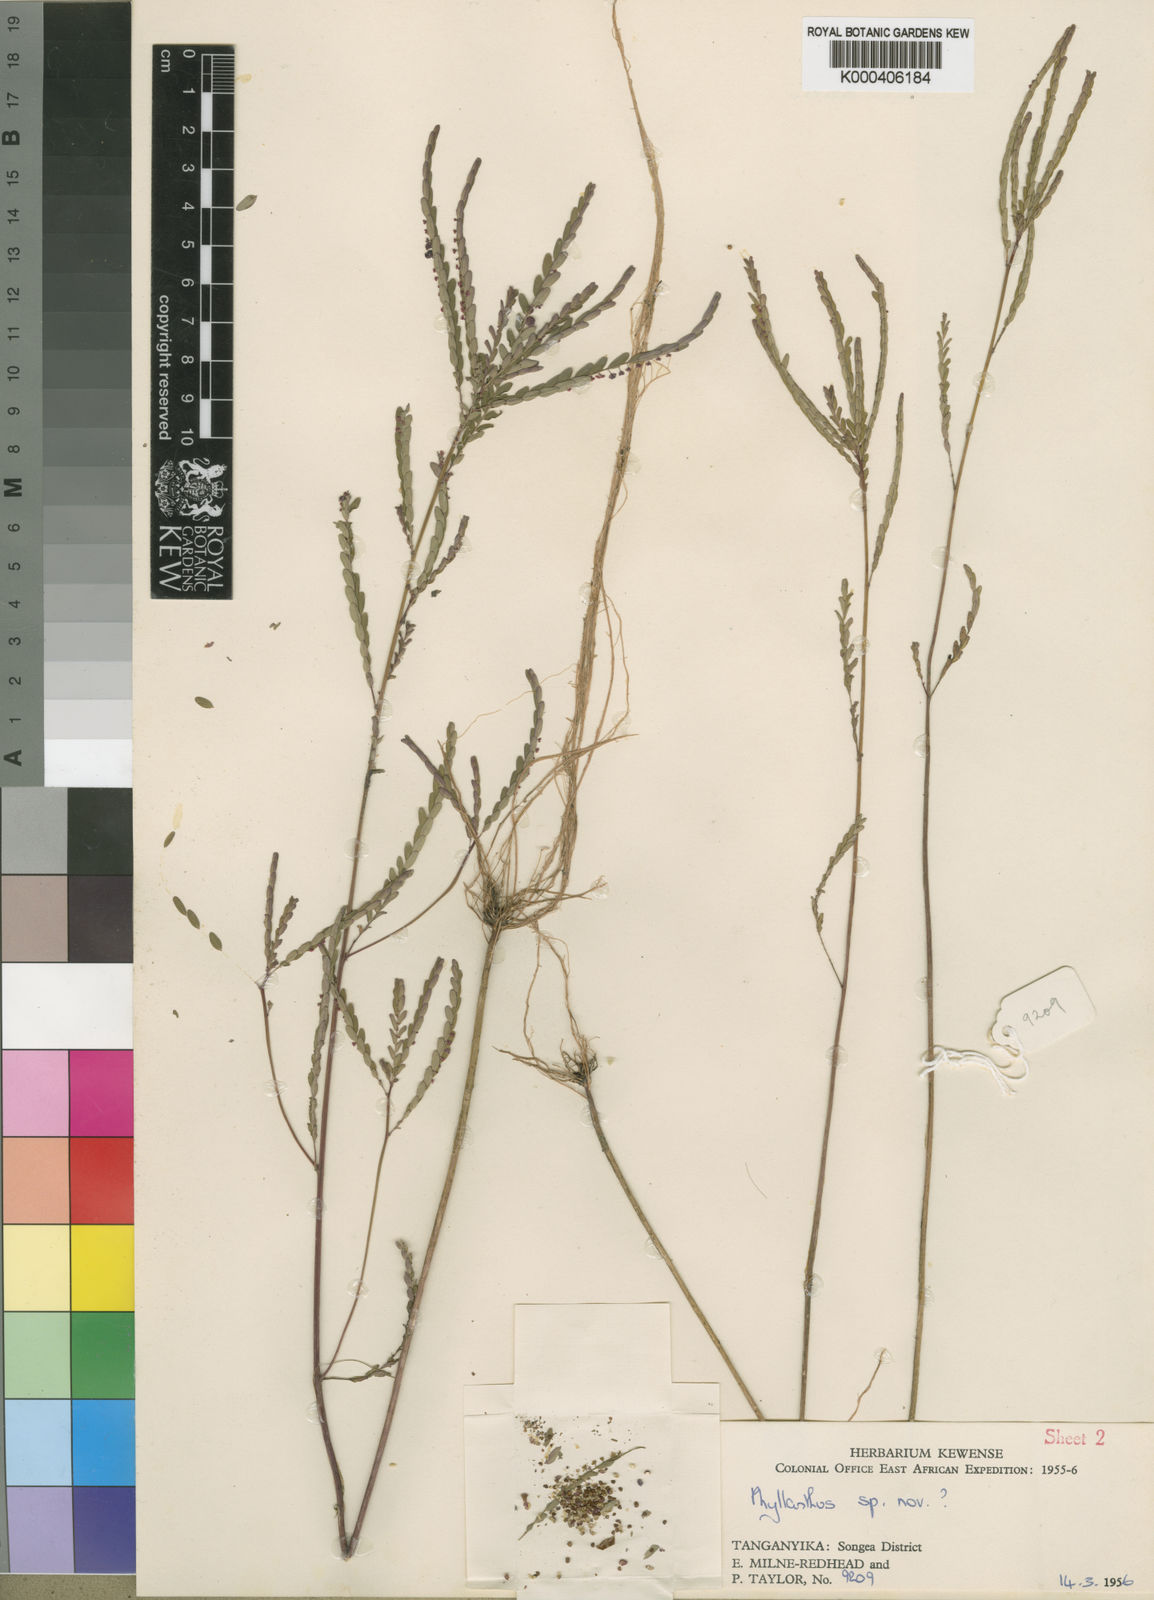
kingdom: Plantae
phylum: Tracheophyta
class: Magnoliopsida
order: Malpighiales
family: Phyllanthaceae
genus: Phyllanthus
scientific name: Phyllanthus irriguus
